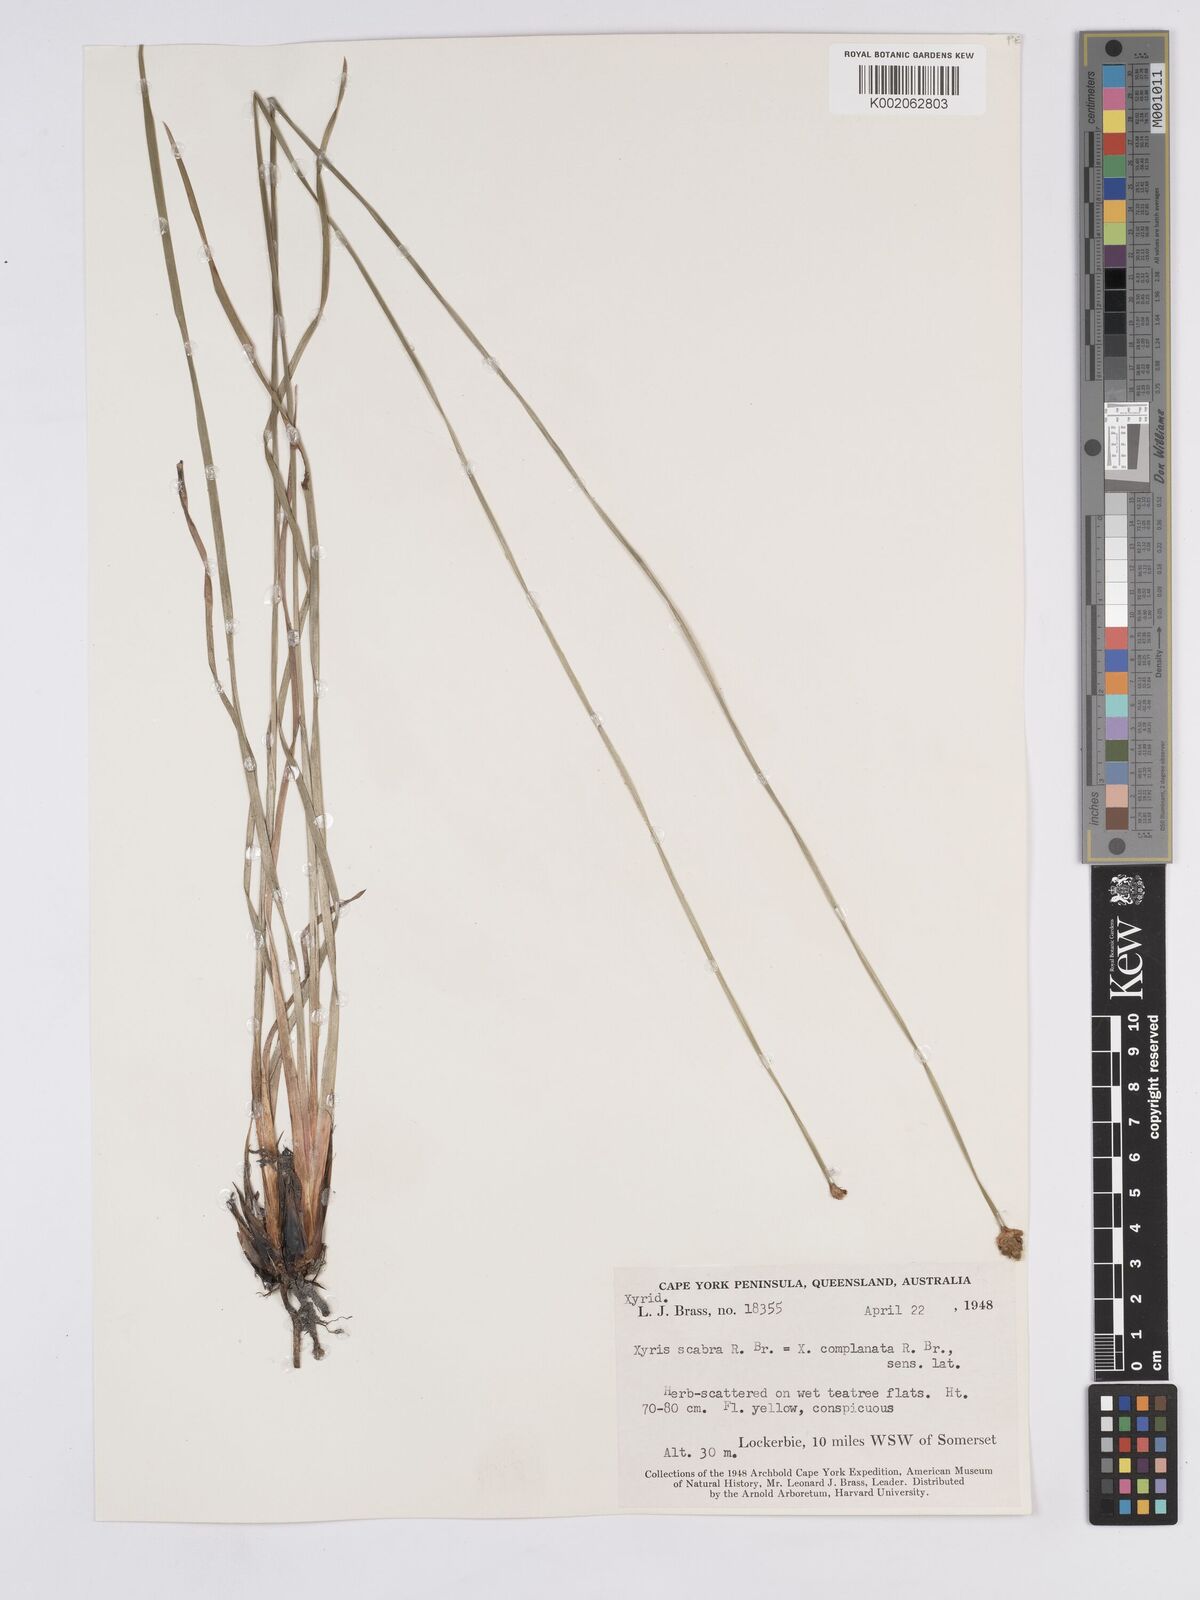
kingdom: Plantae
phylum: Tracheophyta
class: Liliopsida
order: Poales
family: Xyridaceae
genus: Xyris
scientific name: Xyris complanata
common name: Hawai'i yelloweyed grass
